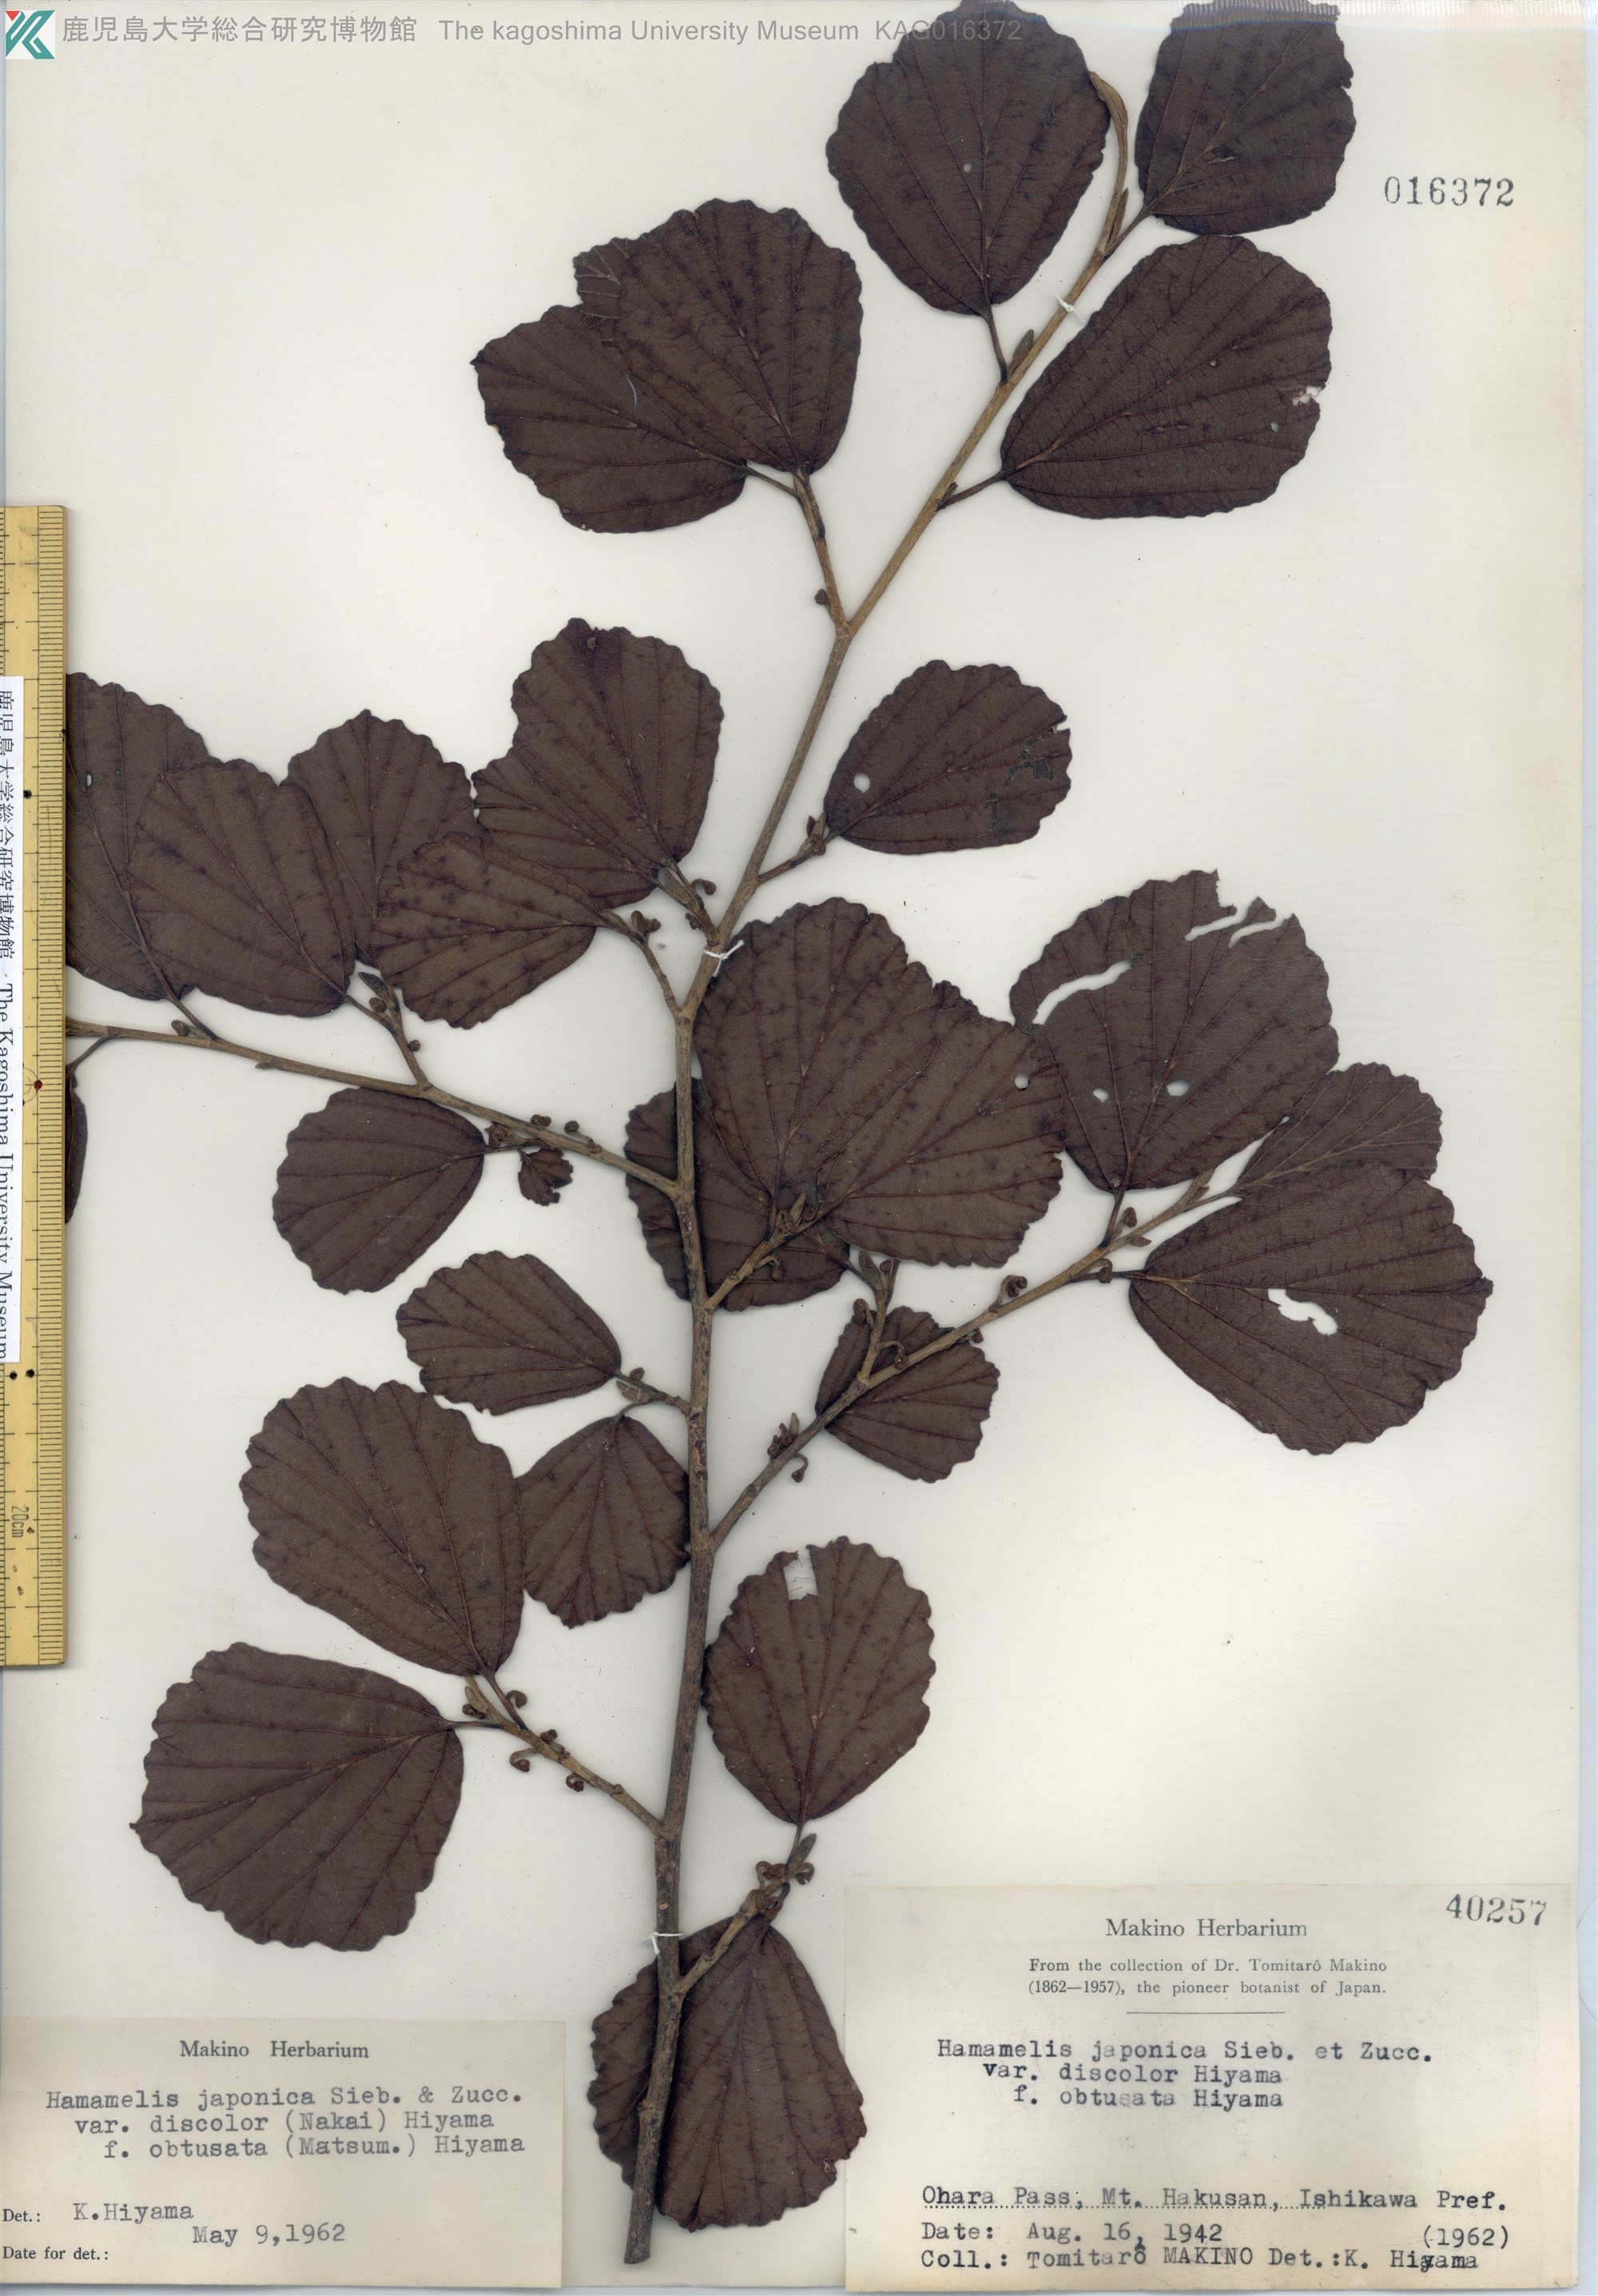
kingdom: Plantae
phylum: Tracheophyta
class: Magnoliopsida
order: Saxifragales
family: Hamamelidaceae
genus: Hamamelis
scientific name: Hamamelis japonica
